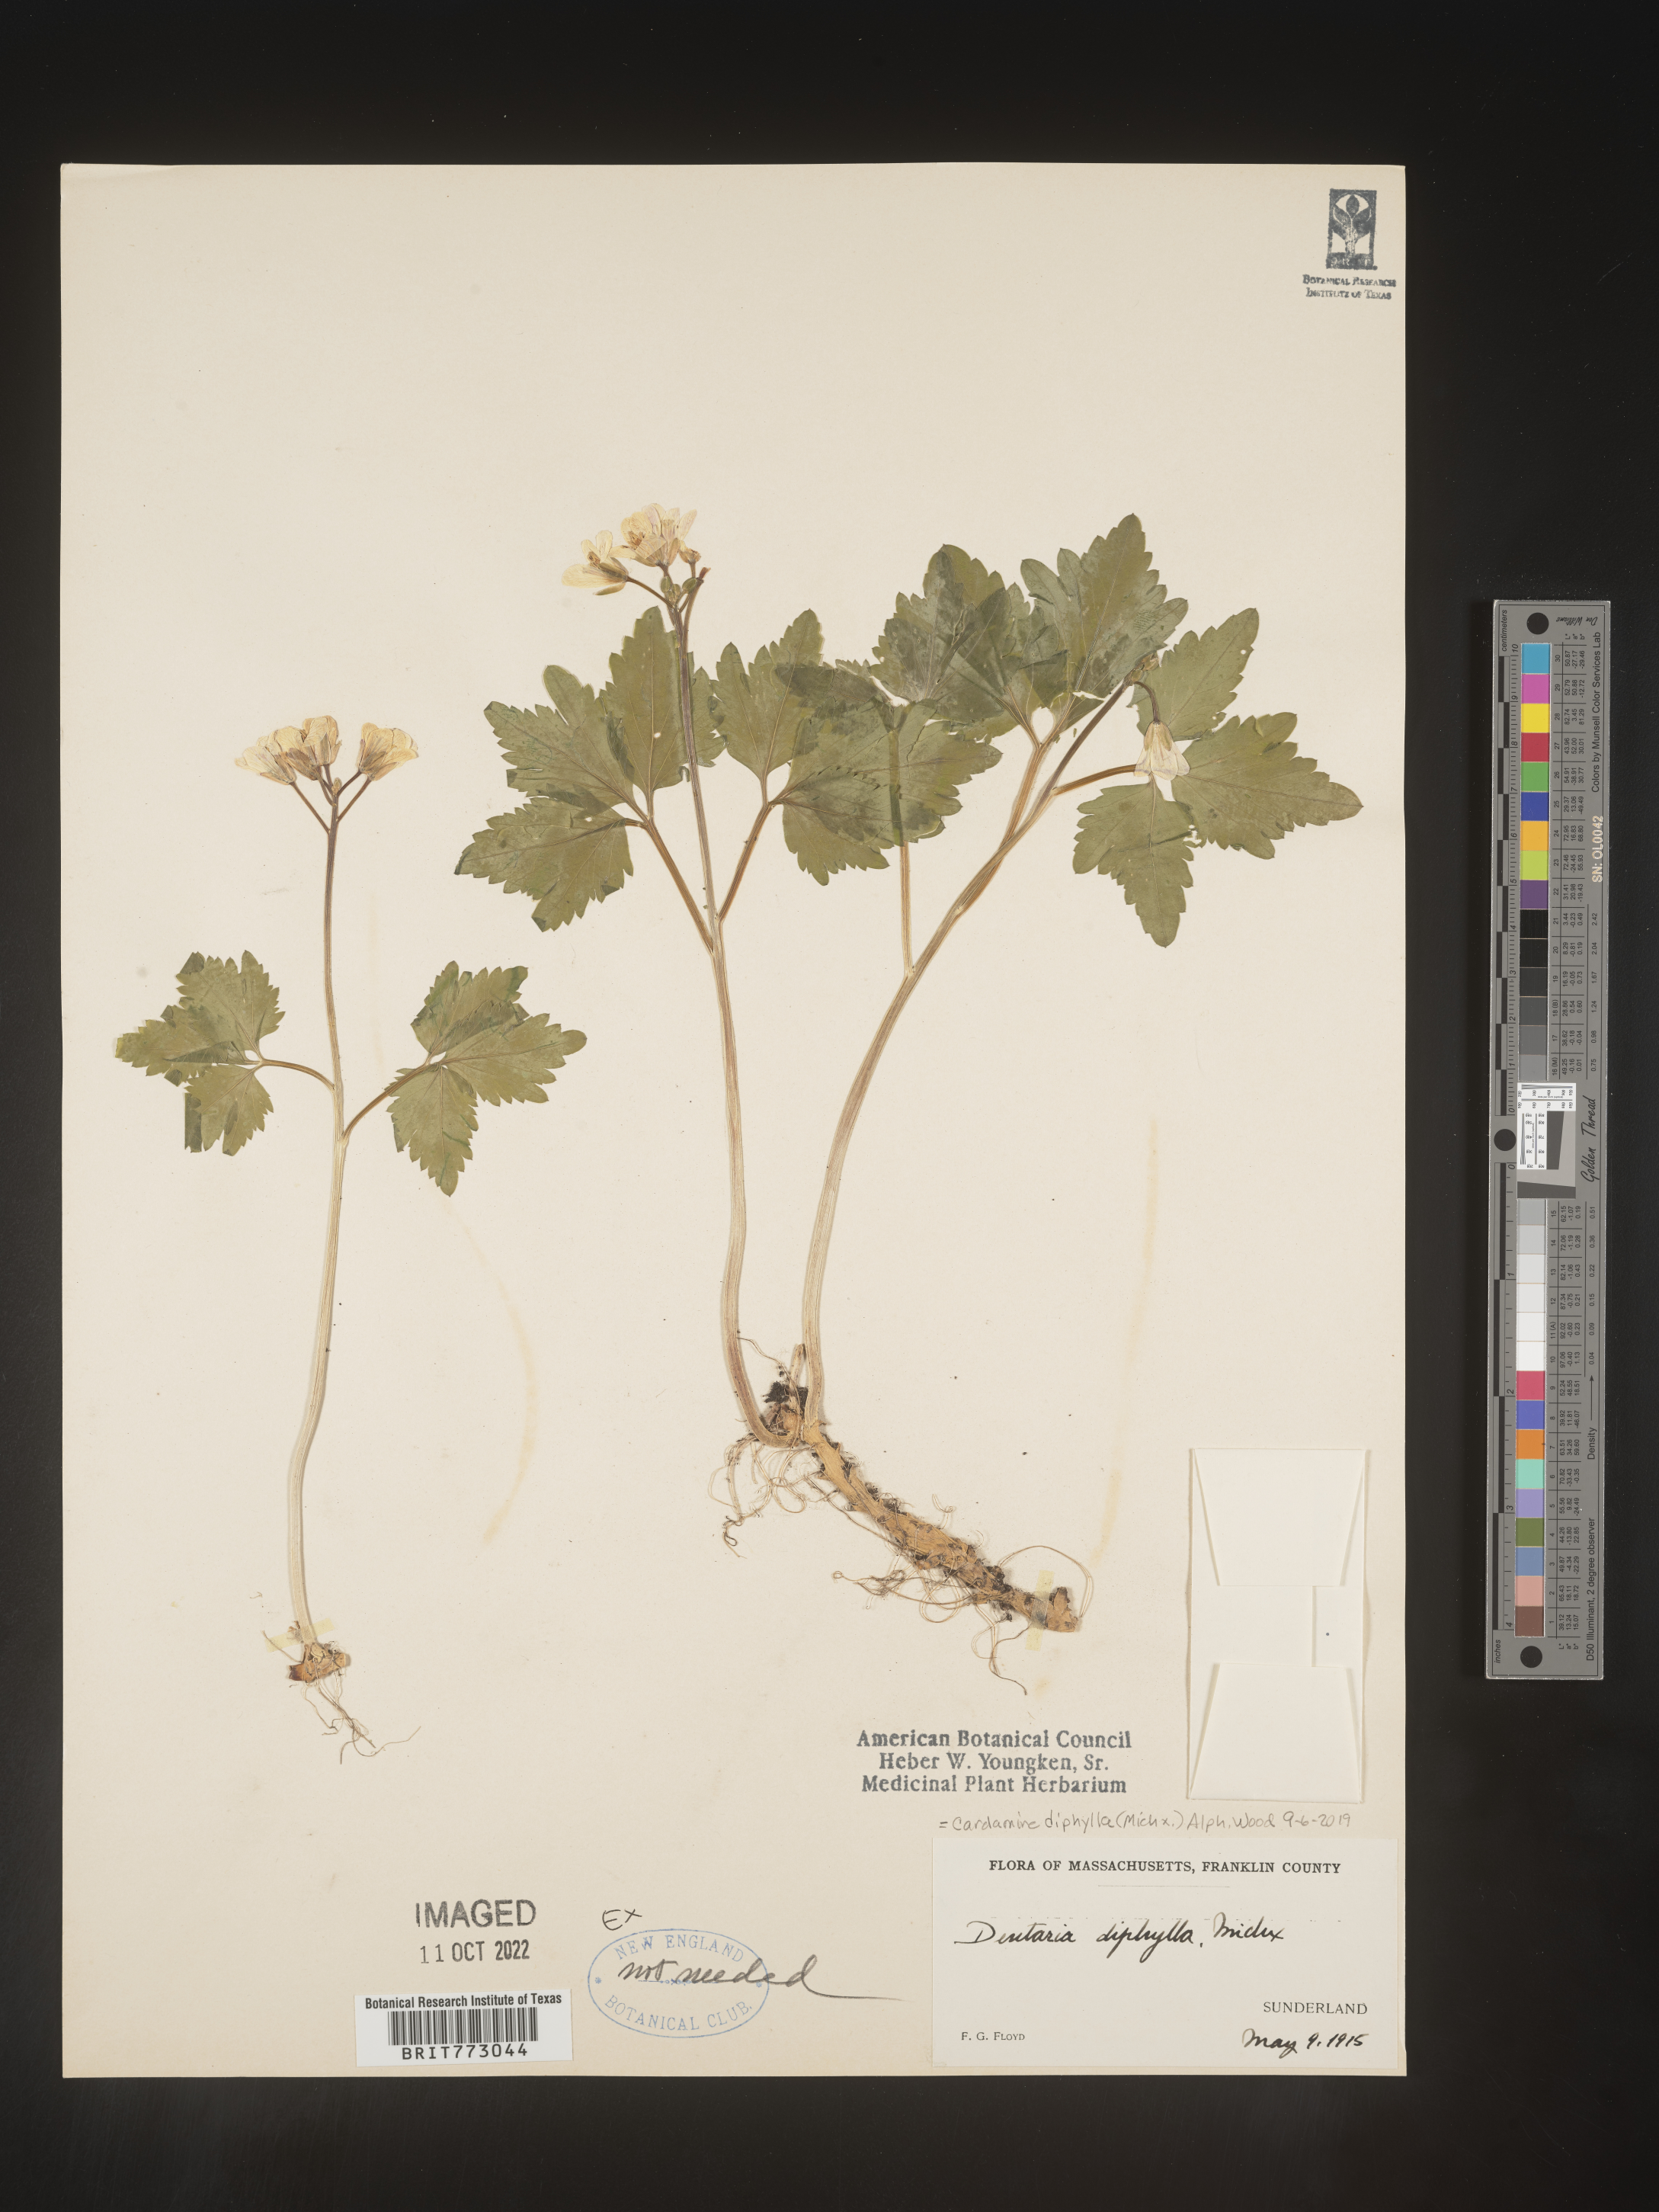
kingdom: Plantae
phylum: Tracheophyta
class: Magnoliopsida
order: Brassicales
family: Brassicaceae
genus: Cardamine
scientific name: Cardamine diphylla
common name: Broad-leaved toothwort
